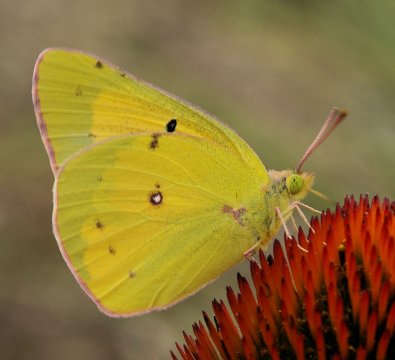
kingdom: Animalia
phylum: Arthropoda
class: Insecta
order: Lepidoptera
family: Pieridae
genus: Colias
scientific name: Colias eurytheme
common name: Orange Sulphur
